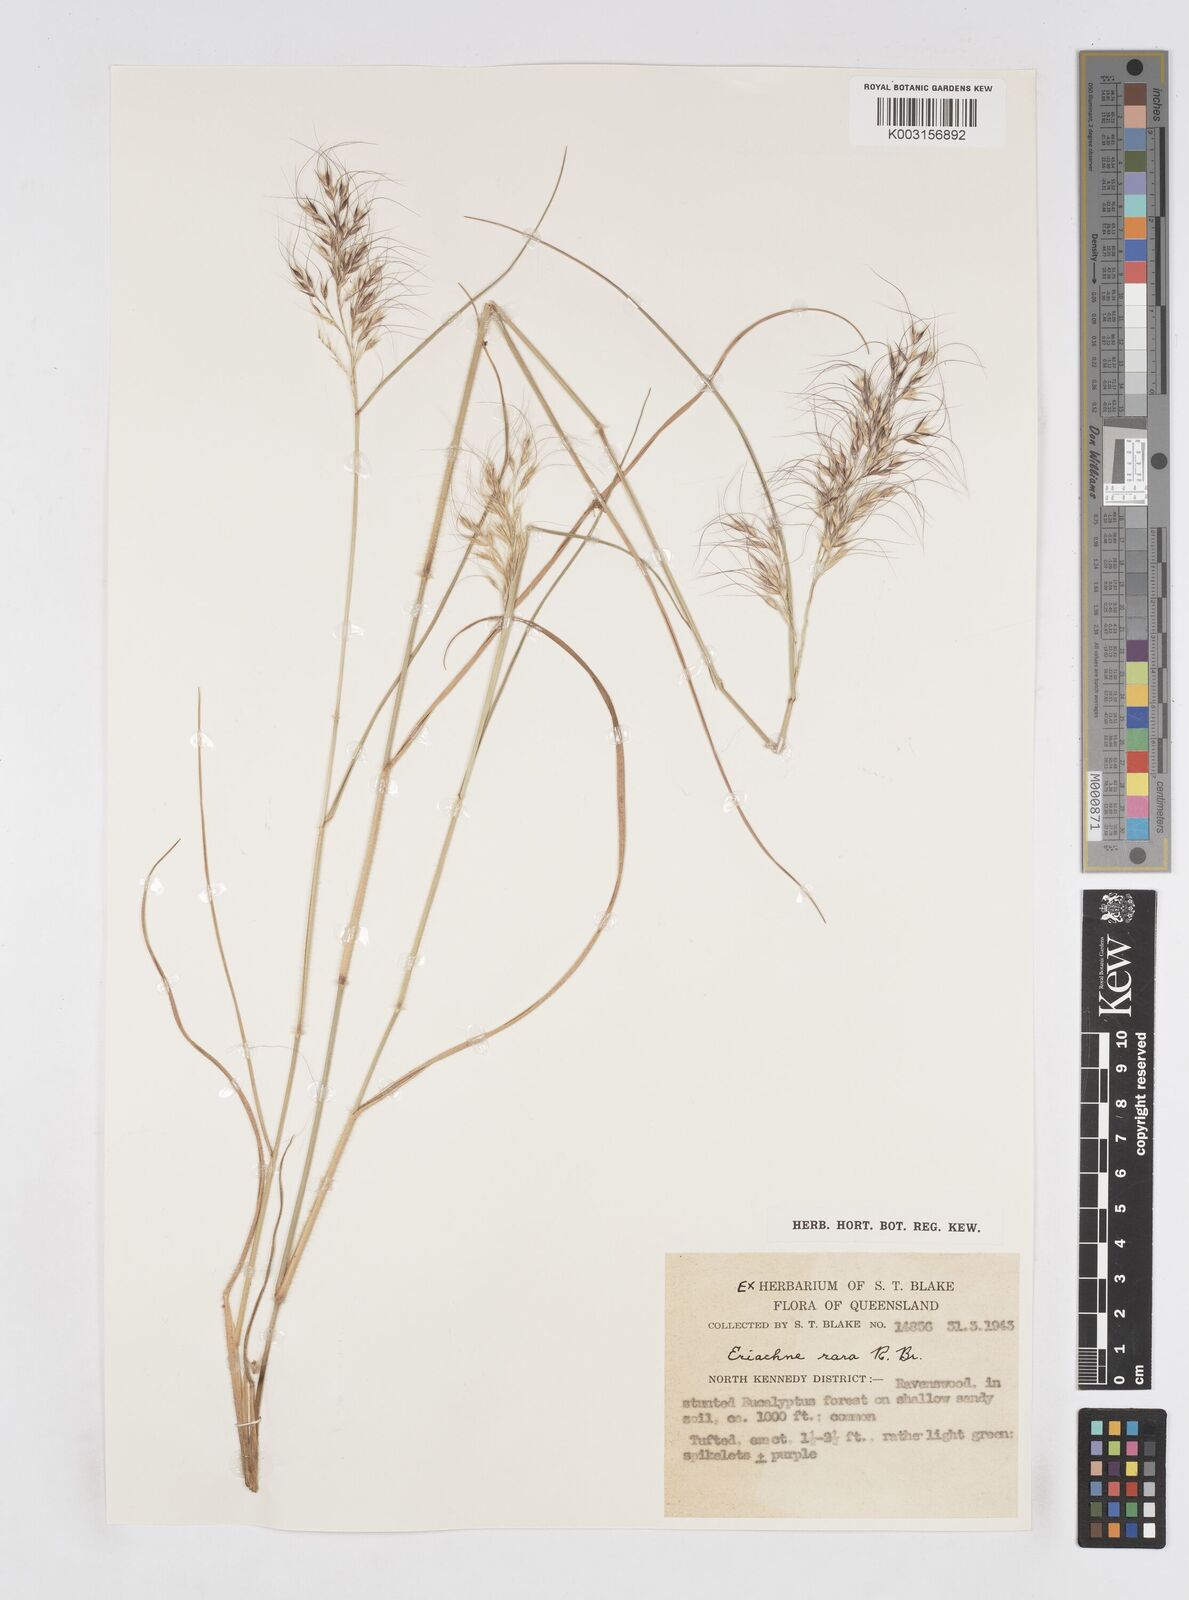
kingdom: Plantae
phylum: Tracheophyta
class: Liliopsida
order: Poales
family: Poaceae
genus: Eriachne
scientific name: Eriachne rara
